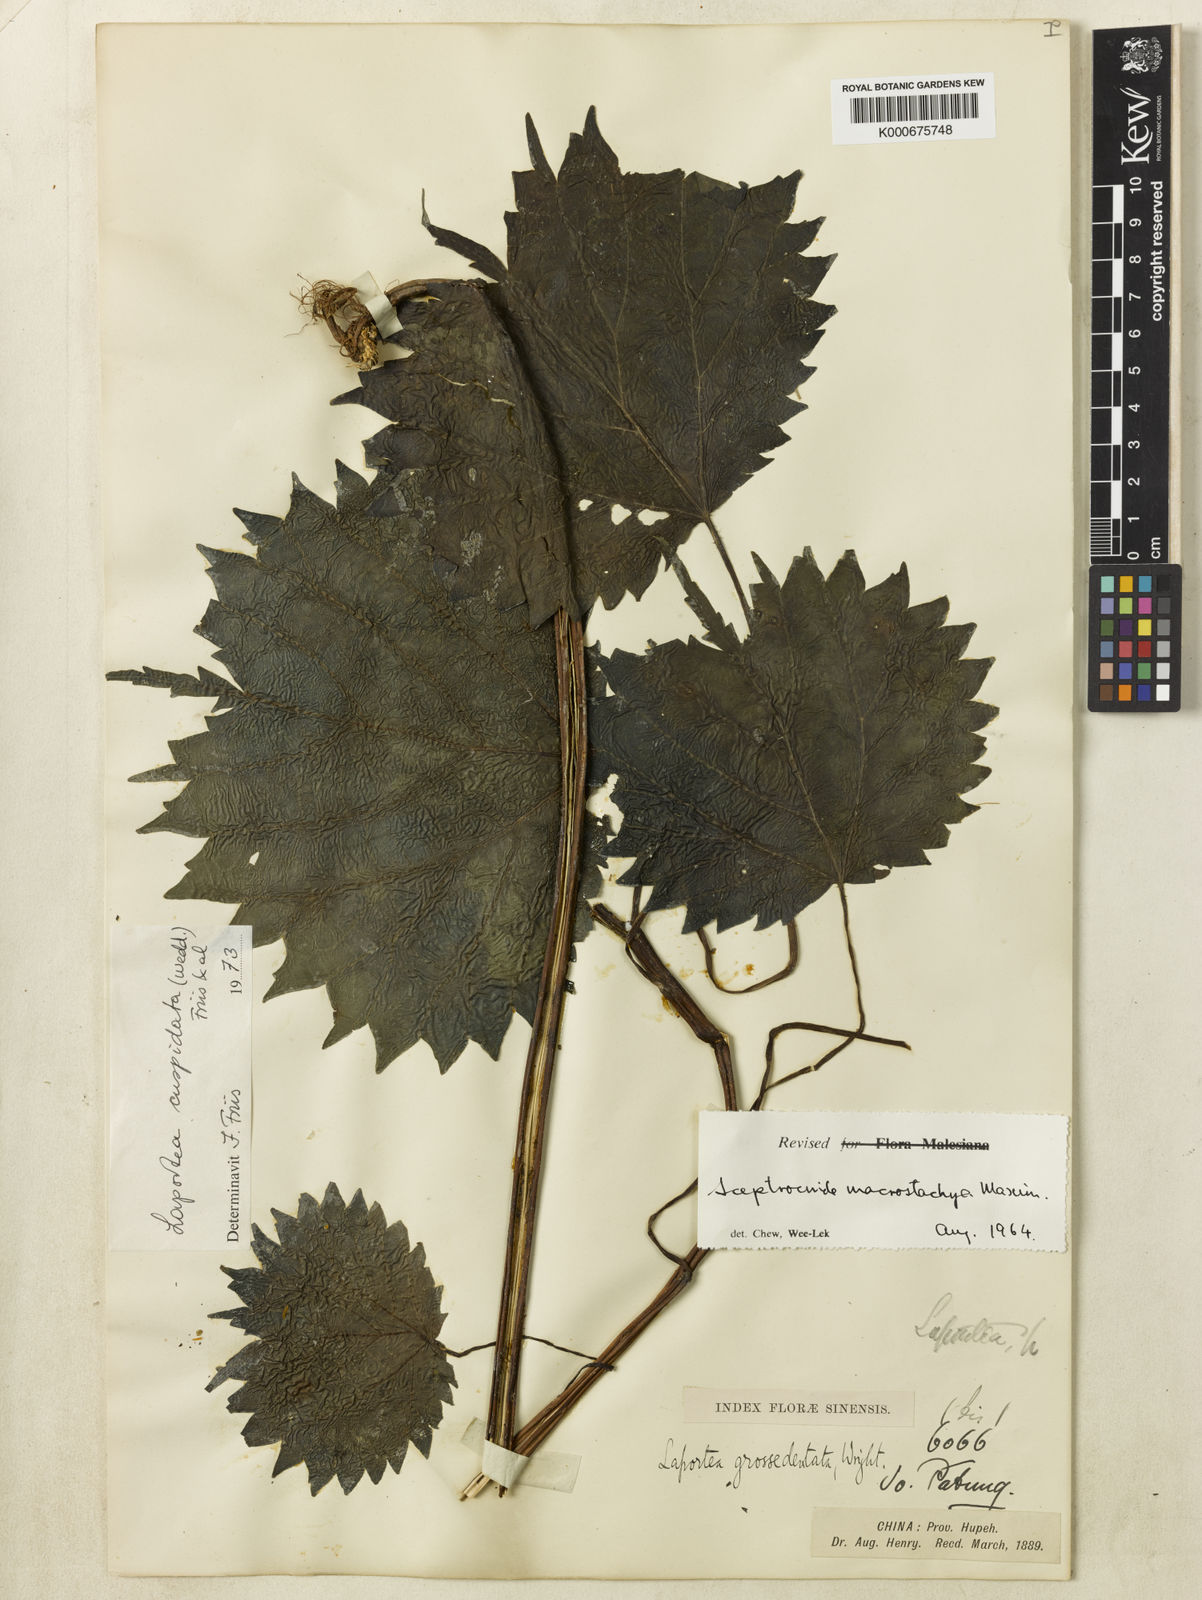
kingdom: Plantae
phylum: Tracheophyta
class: Magnoliopsida
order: Rosales
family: Urticaceae
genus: Laportea
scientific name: Laportea cuspidata
